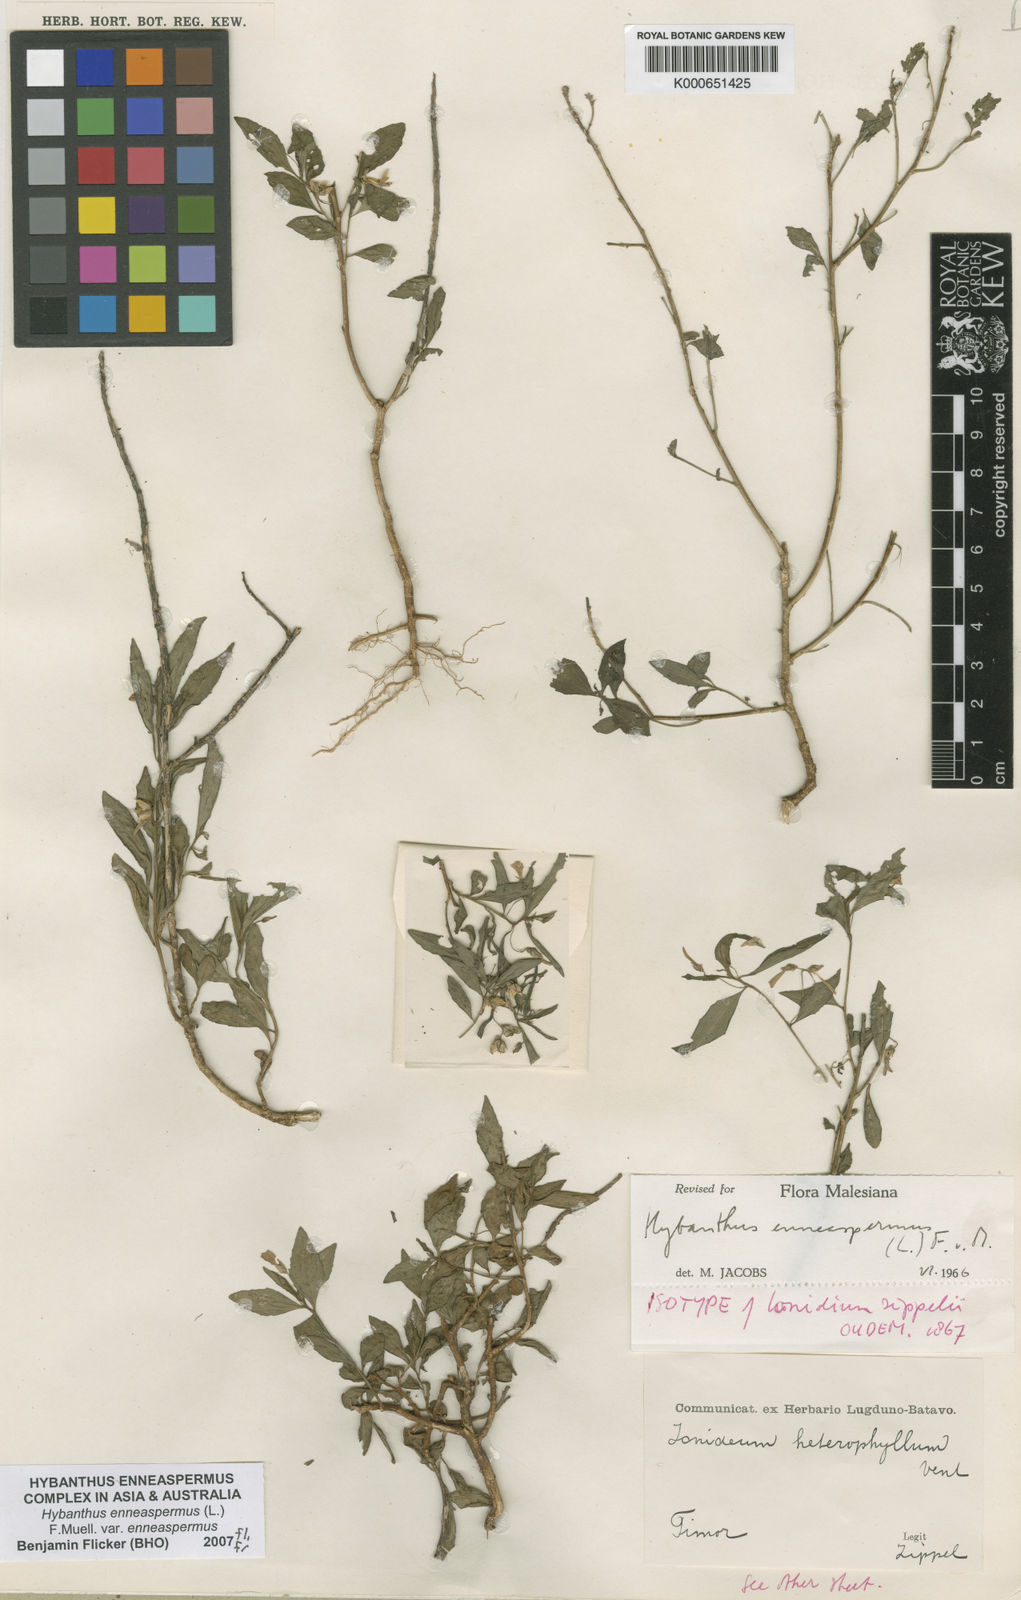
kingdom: Plantae
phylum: Tracheophyta
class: Magnoliopsida
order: Malpighiales
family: Violaceae
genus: Pigea
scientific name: Pigea enneasperma
